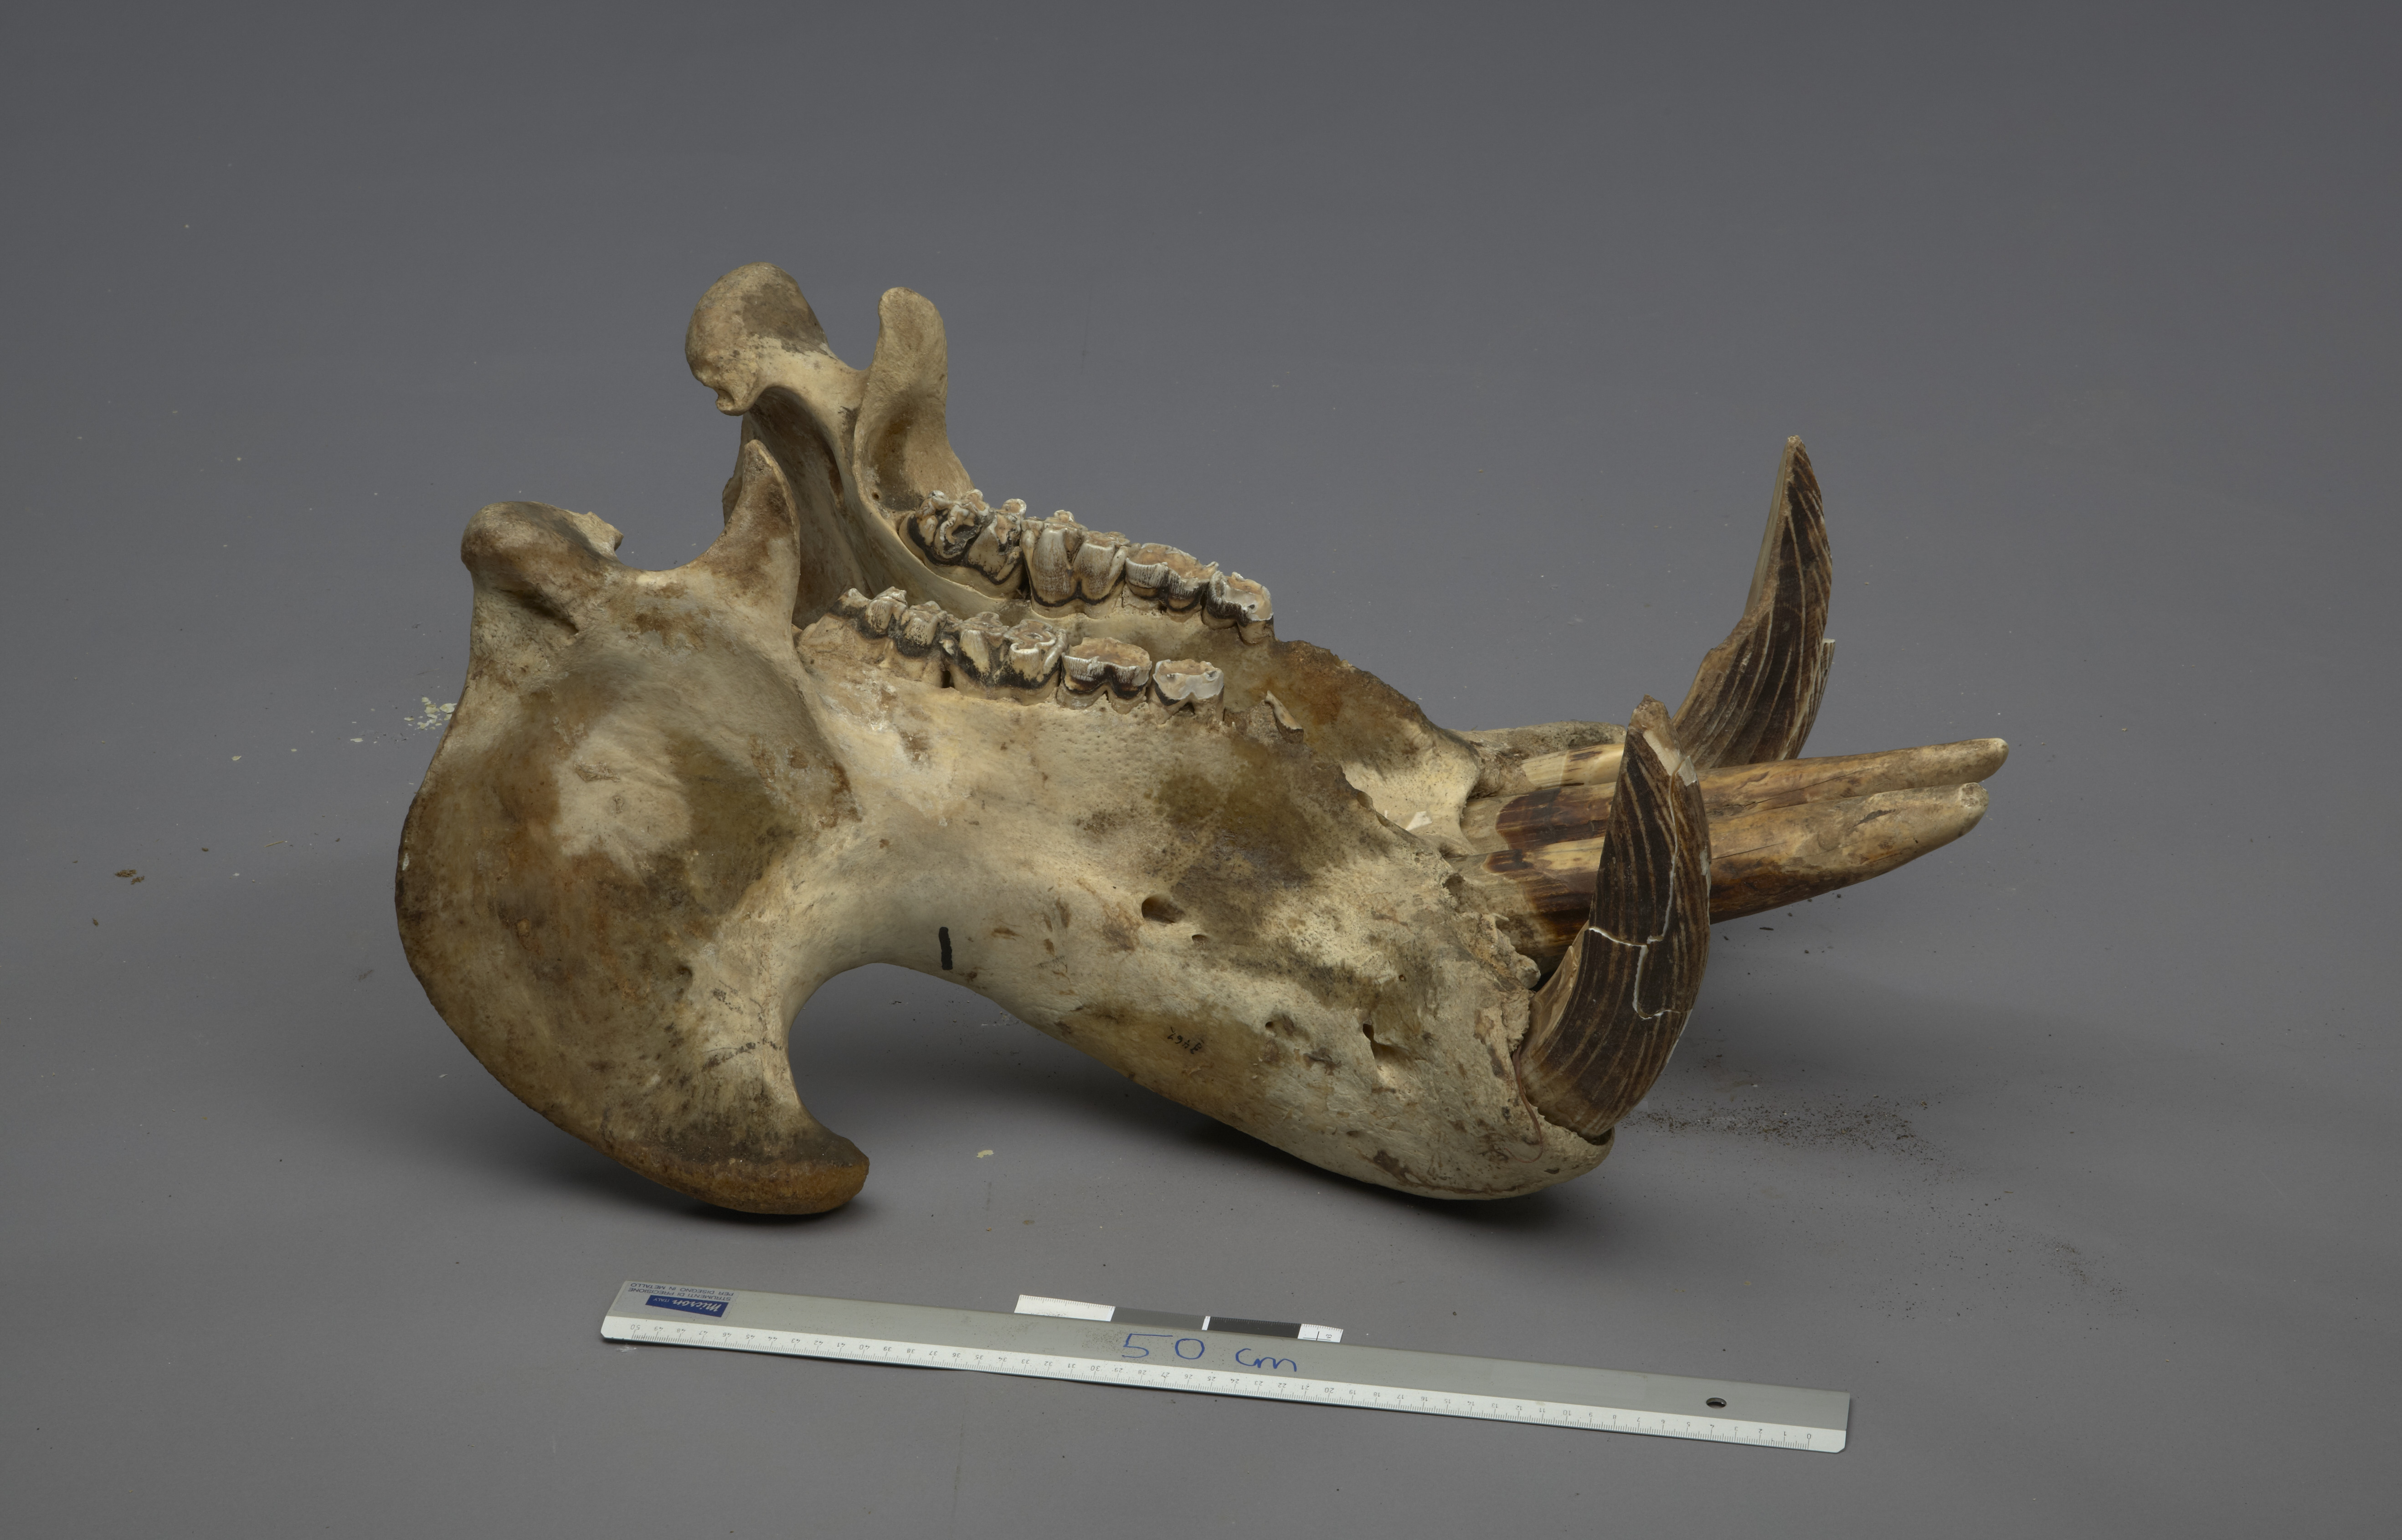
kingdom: Animalia
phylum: Chordata
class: Mammalia
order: Artiodactyla
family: Hippopotamidae
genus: Hippopotamus
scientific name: Hippopotamus amphibius
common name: Common hippopotamus
